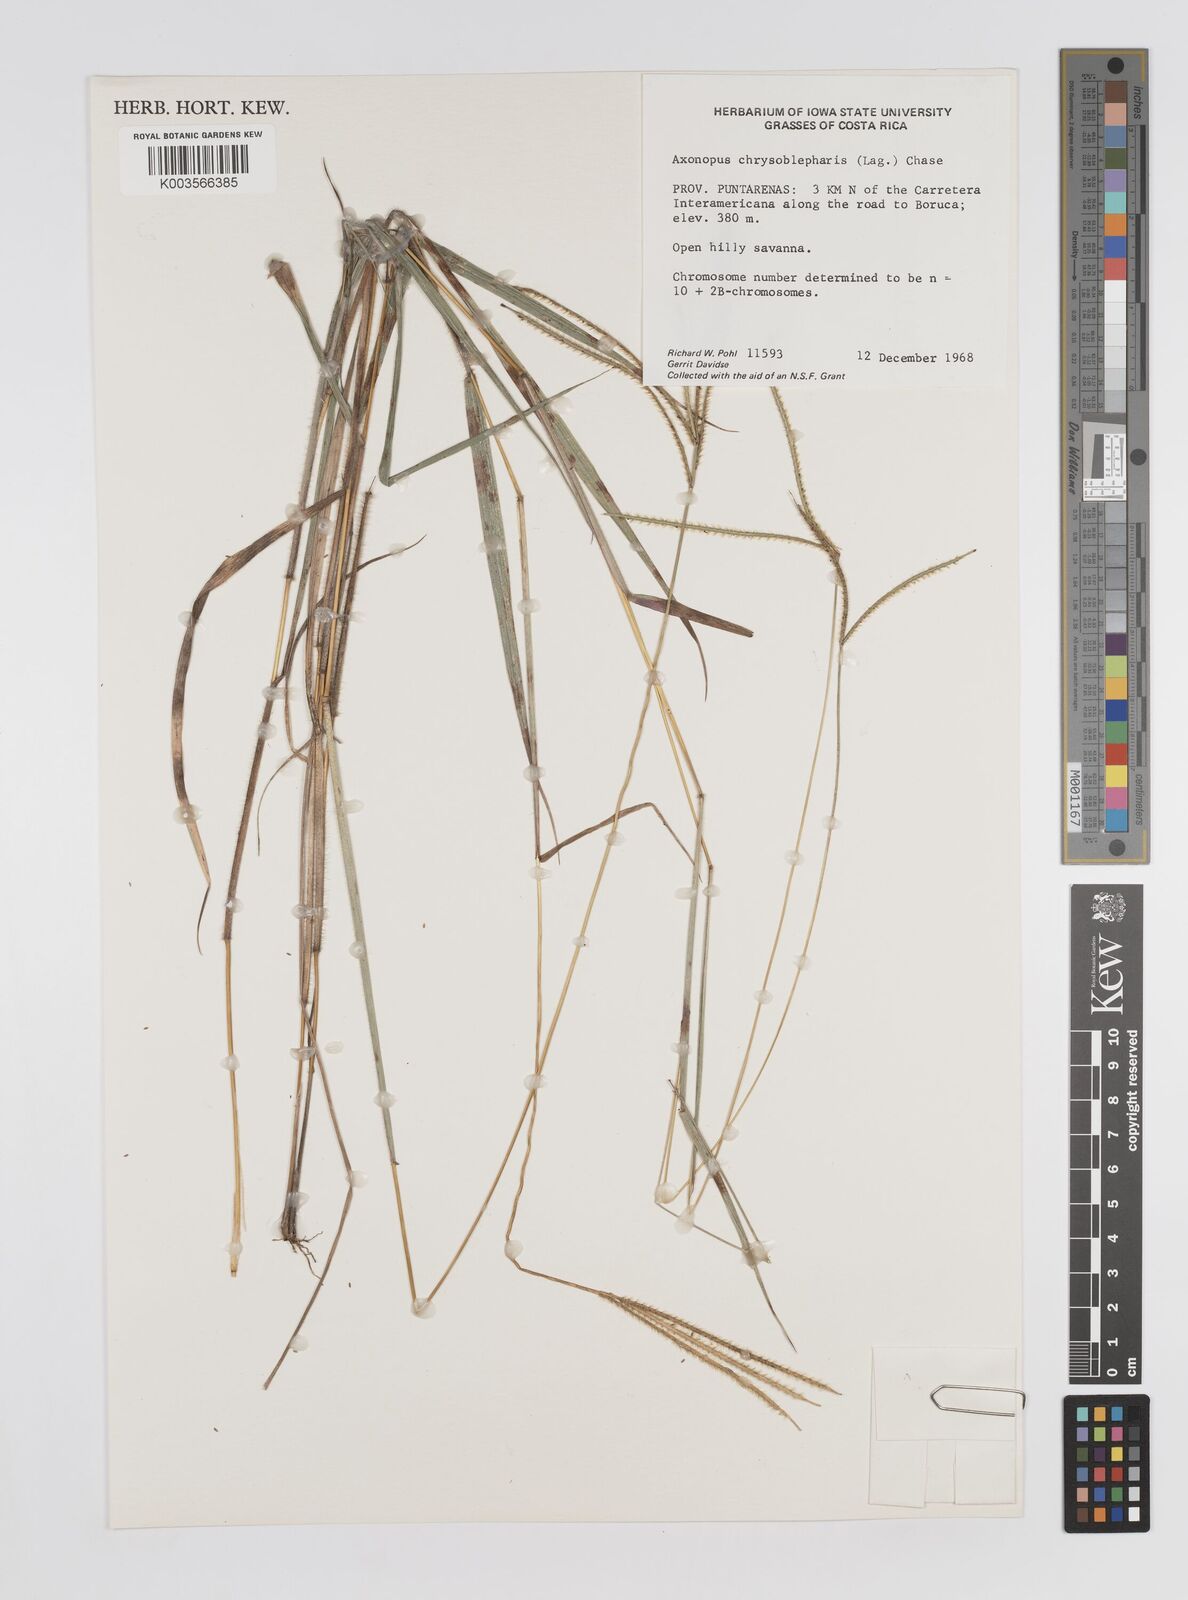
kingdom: Plantae
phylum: Tracheophyta
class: Liliopsida
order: Poales
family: Poaceae
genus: Axonopus
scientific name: Axonopus chrysoblepharis
